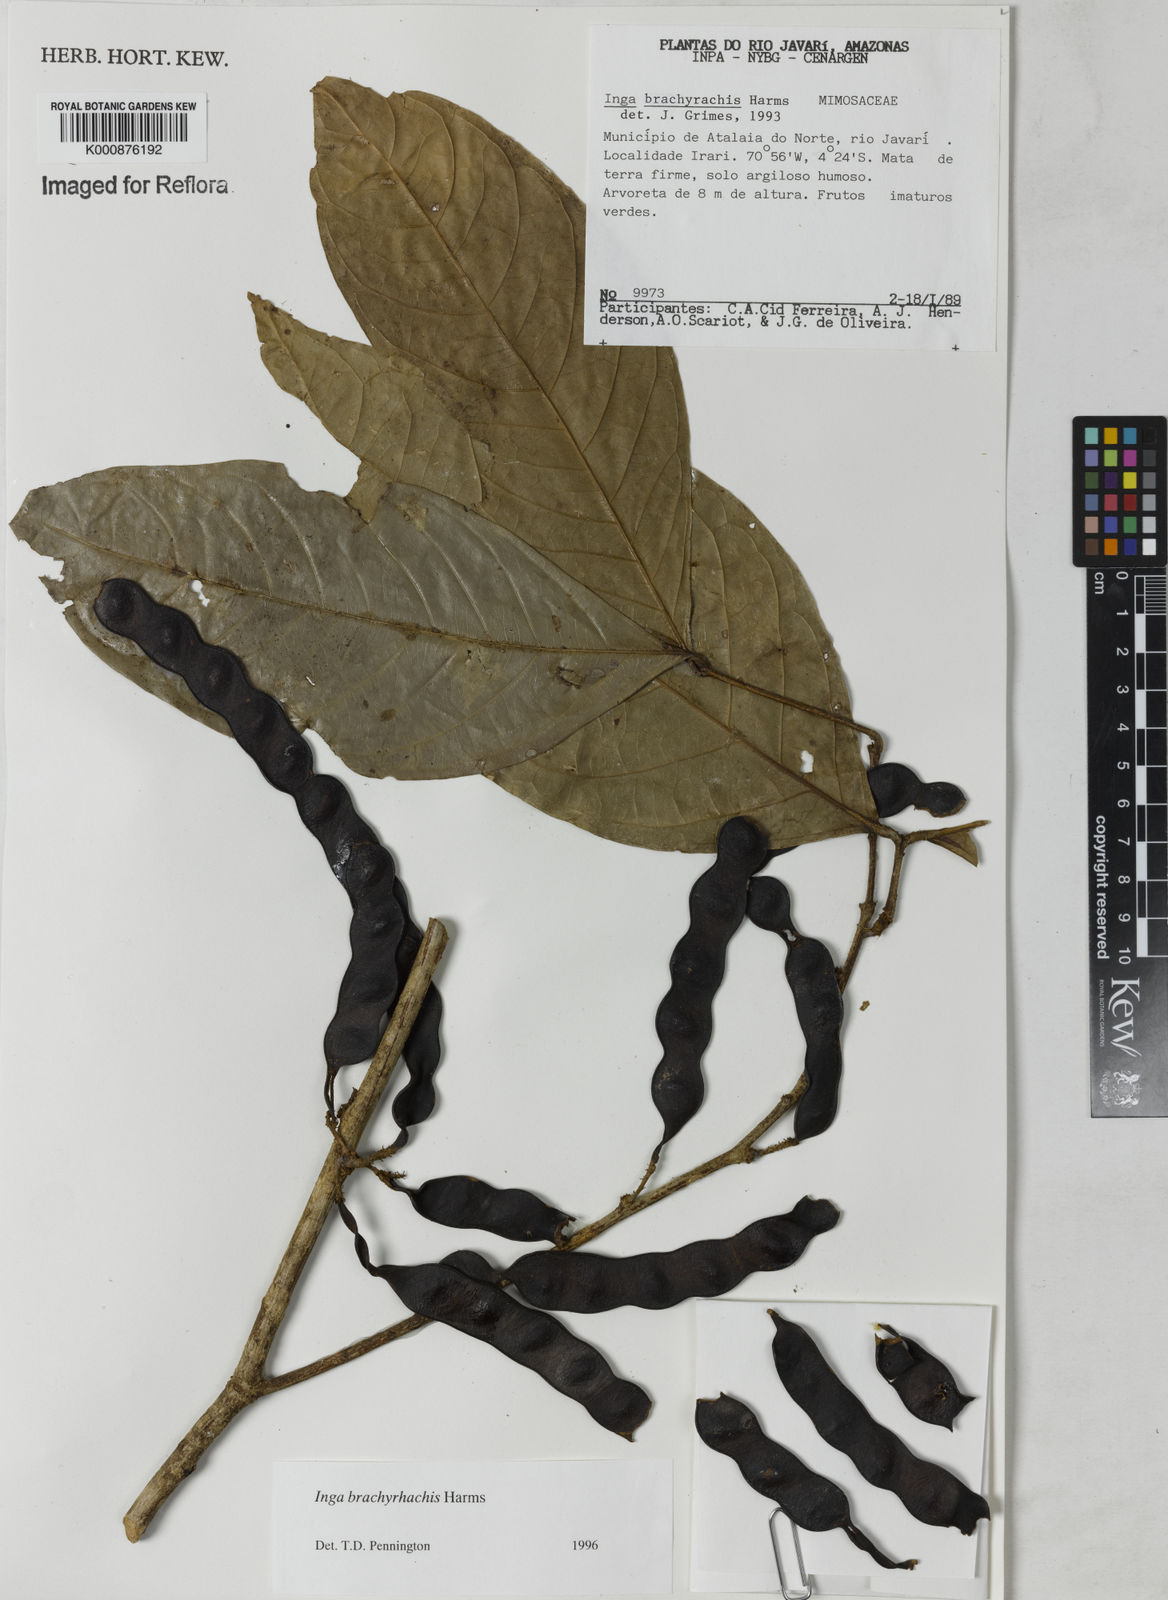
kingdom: Plantae
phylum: Tracheophyta
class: Magnoliopsida
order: Fabales
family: Fabaceae
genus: Inga
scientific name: Inga brachyrhachis
